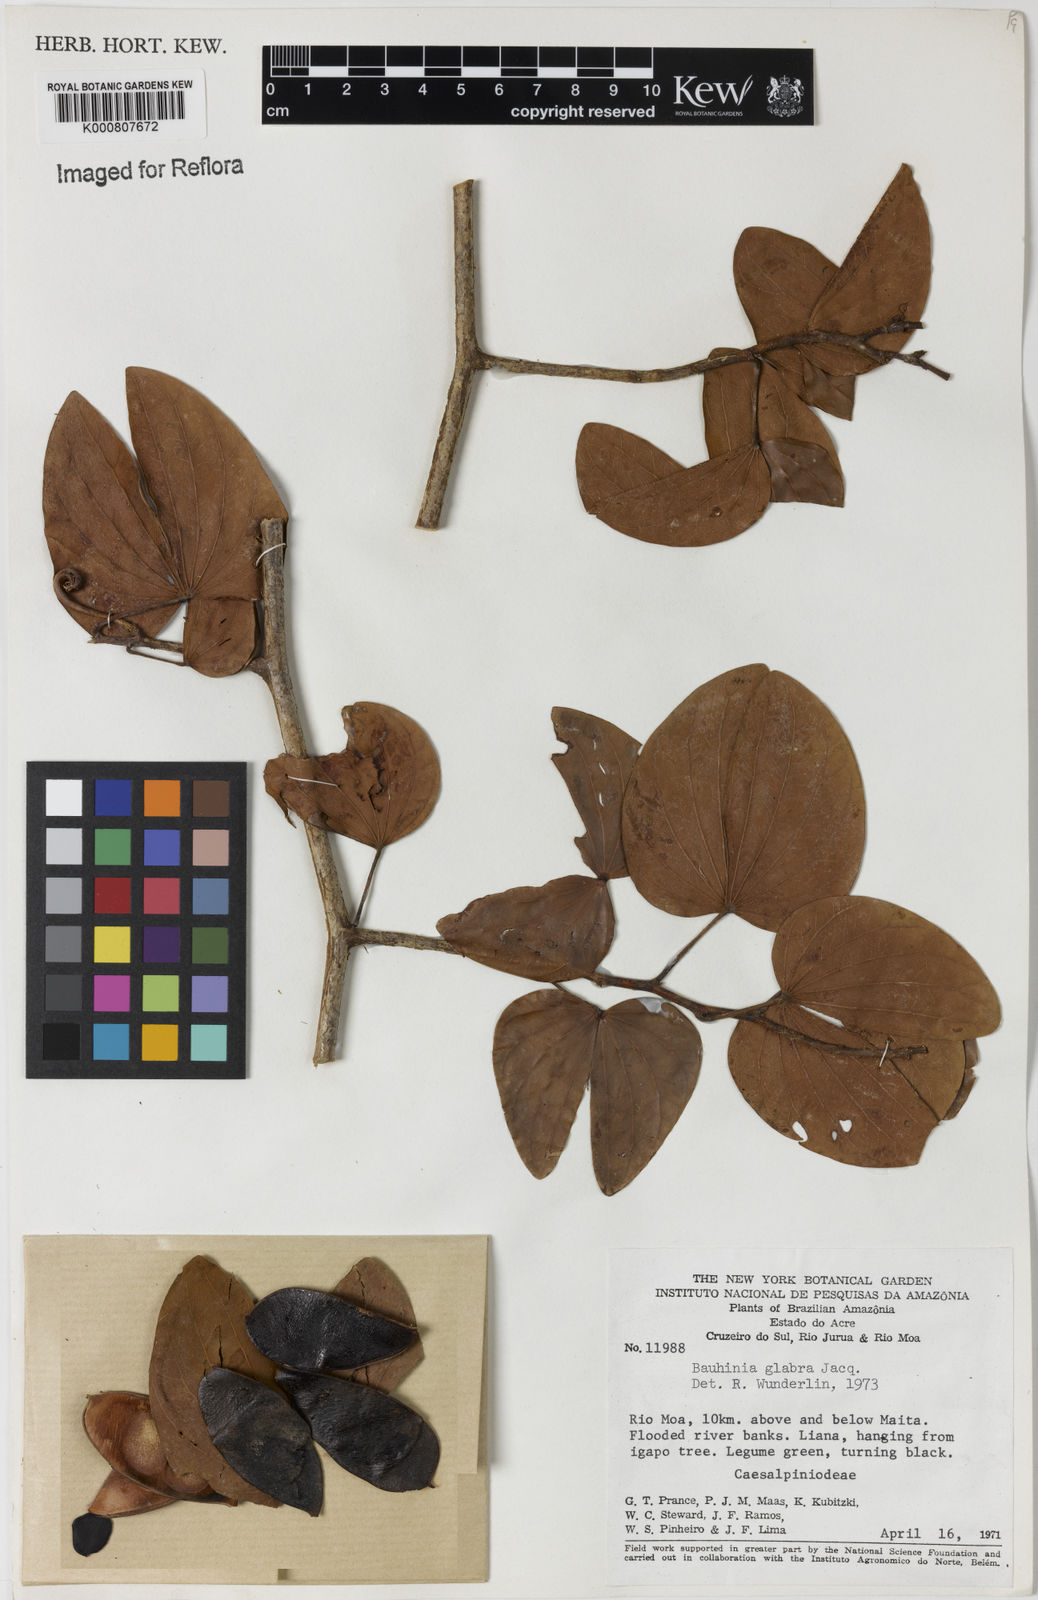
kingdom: Plantae
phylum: Tracheophyta
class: Magnoliopsida
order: Fabales
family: Fabaceae
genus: Schnella
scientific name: Schnella glabra
